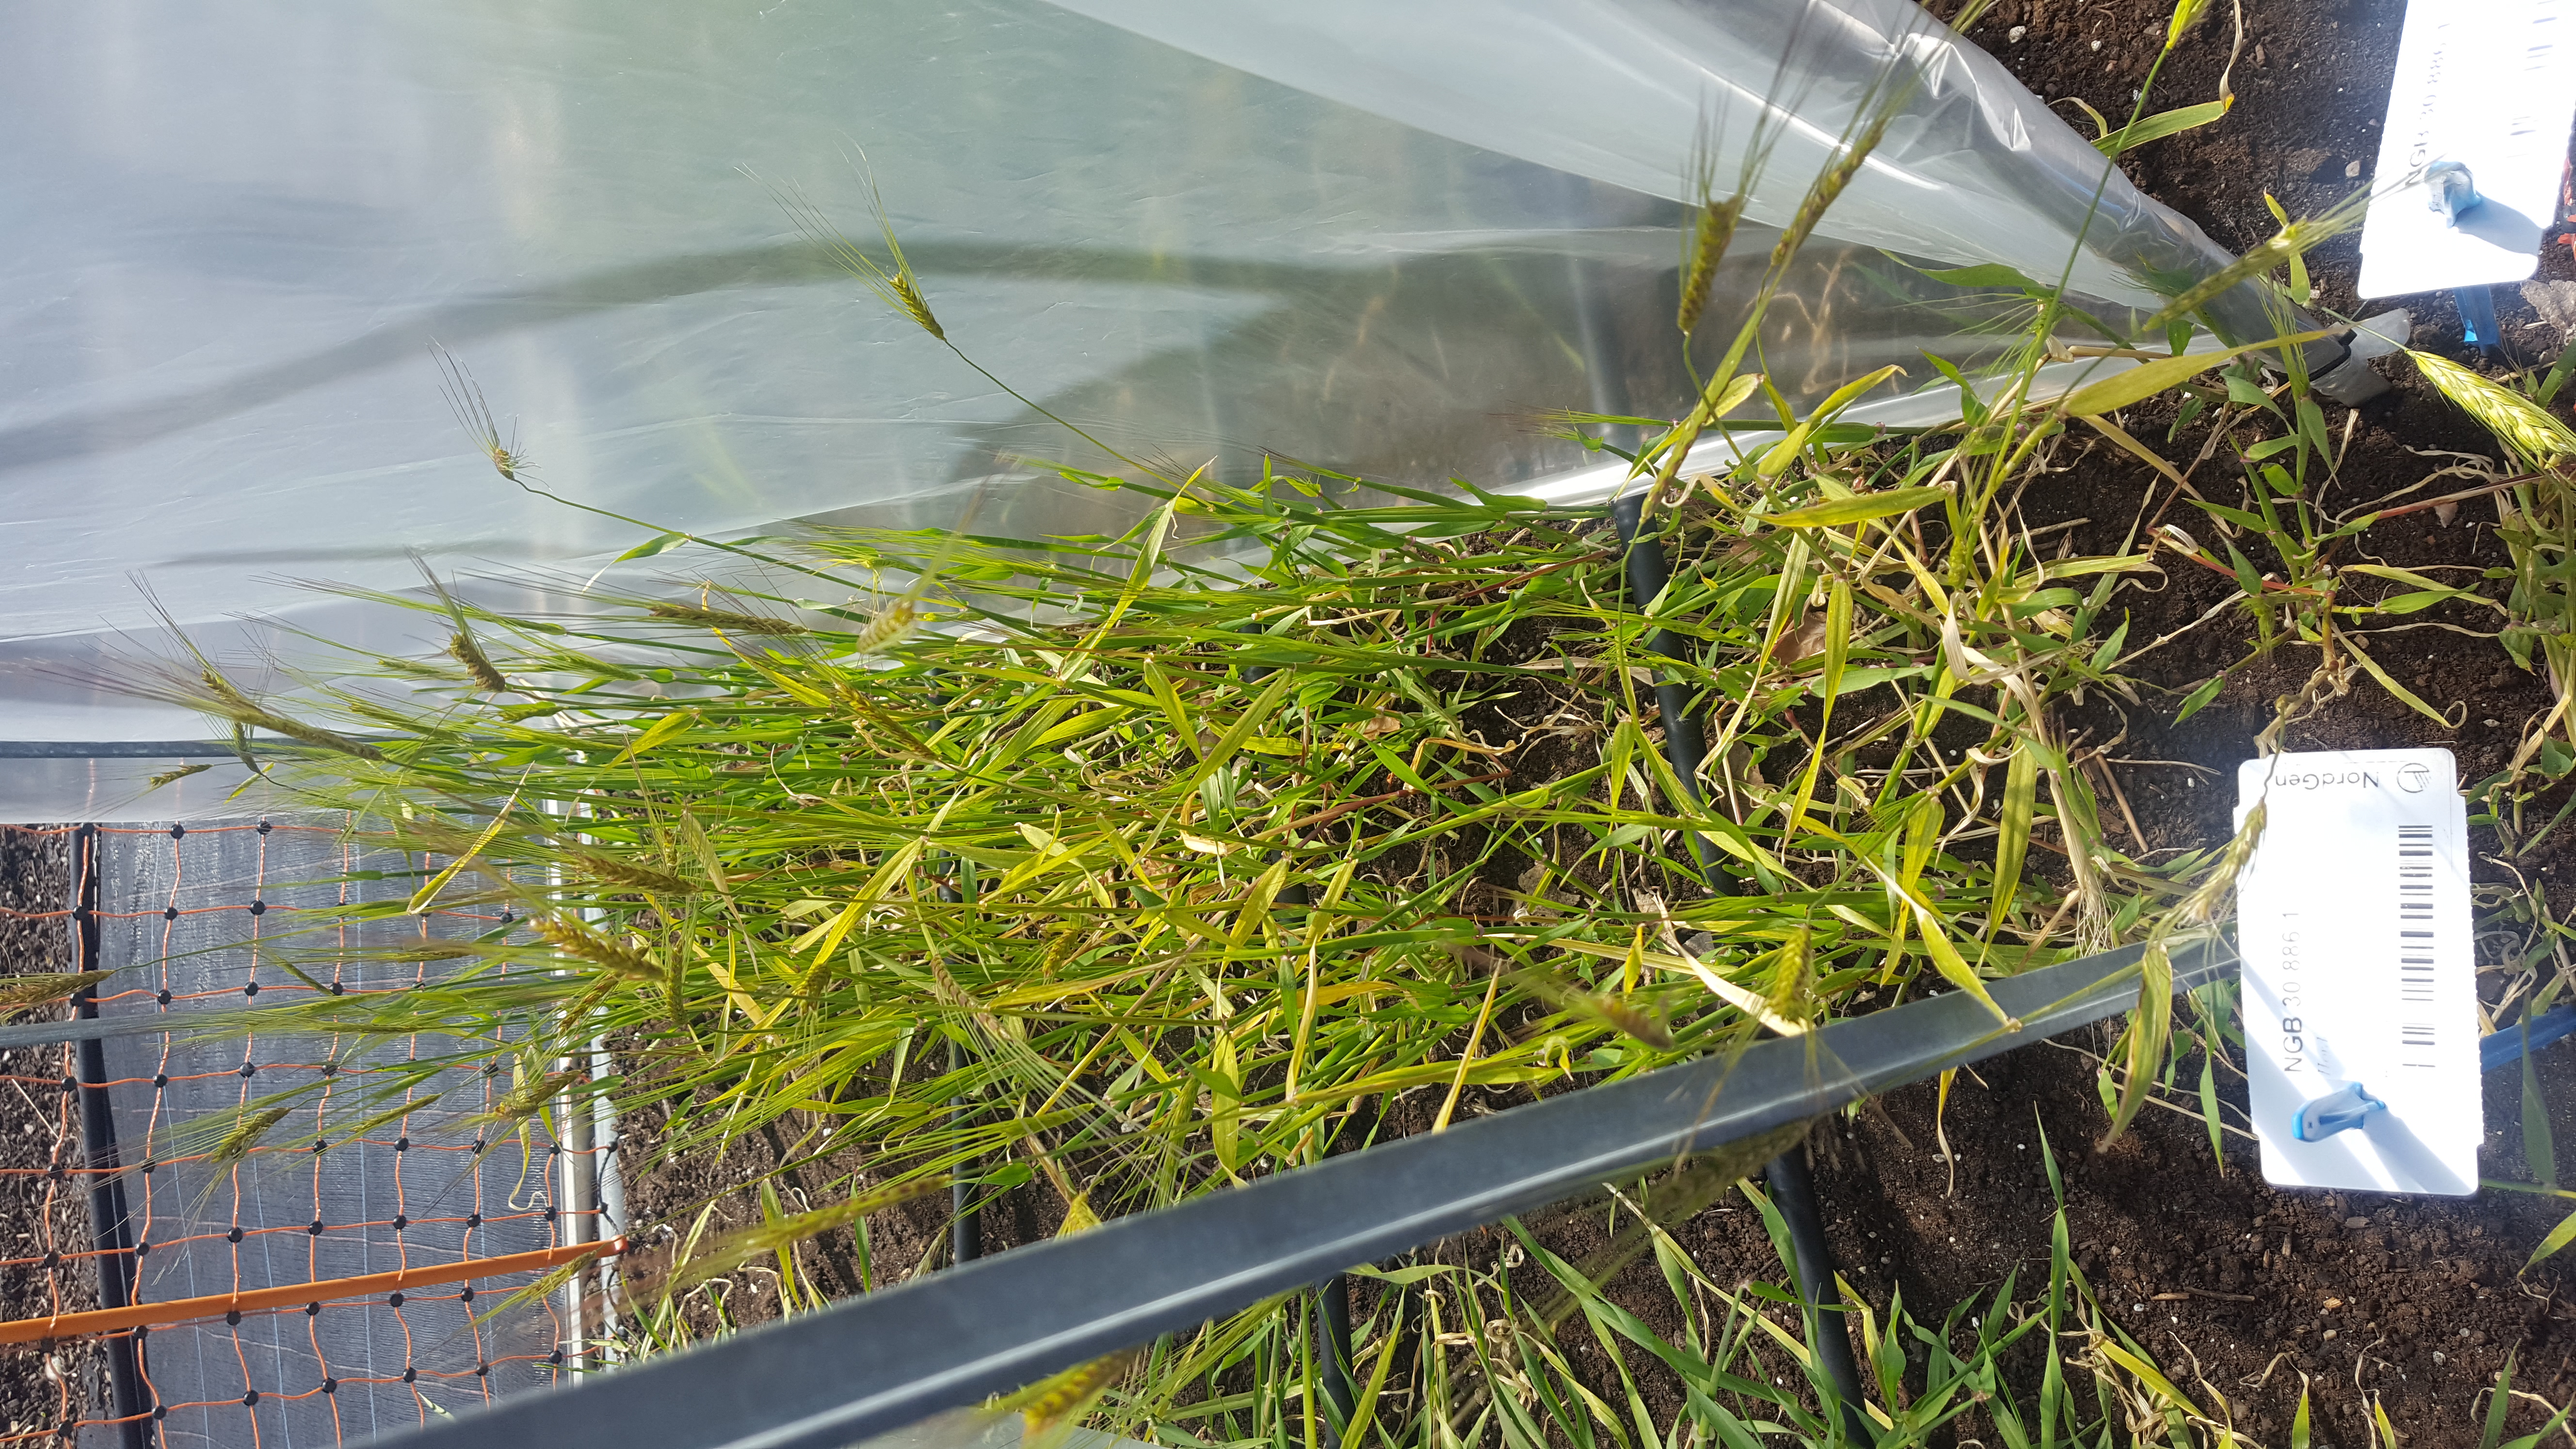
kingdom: Plantae
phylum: Tracheophyta
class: Liliopsida
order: Poales
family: Poaceae
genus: Hordeum
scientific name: Hordeum spontaneum
